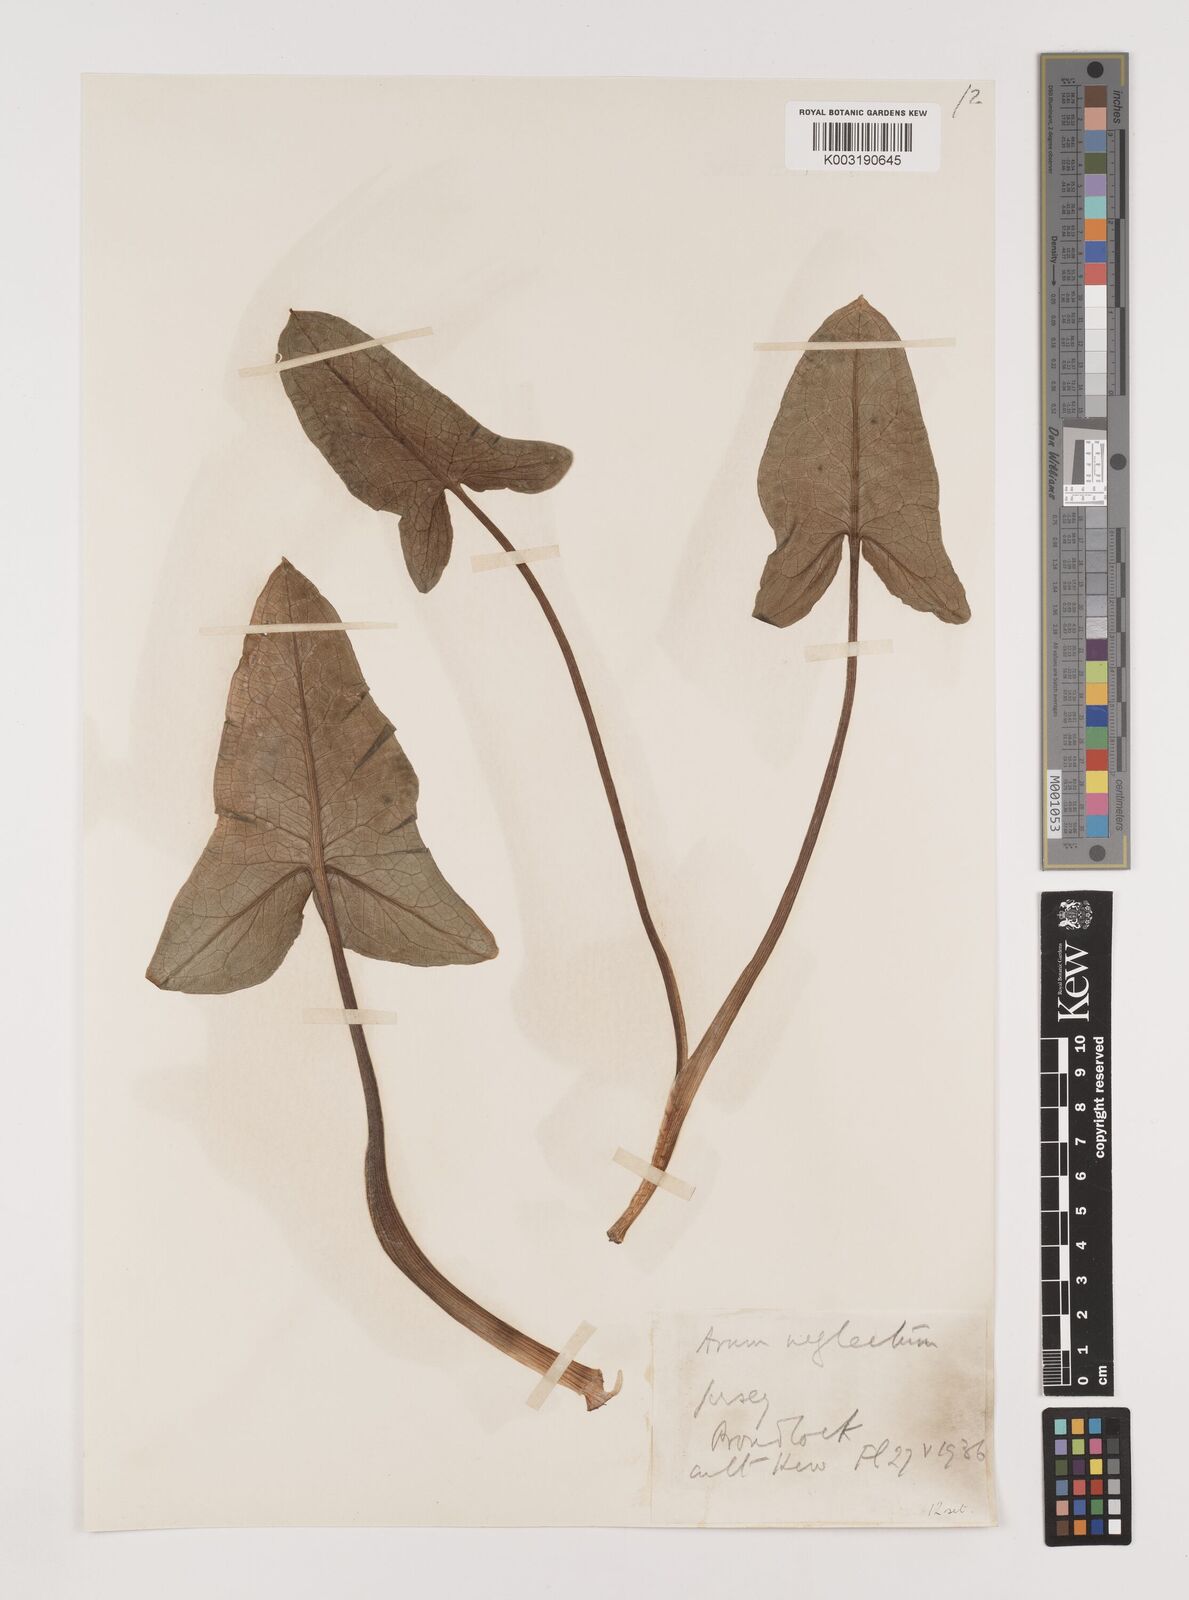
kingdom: Plantae
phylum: Tracheophyta
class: Liliopsida
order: Alismatales
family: Araceae
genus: Arum
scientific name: Arum italicum
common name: Italian lords-and-ladies
